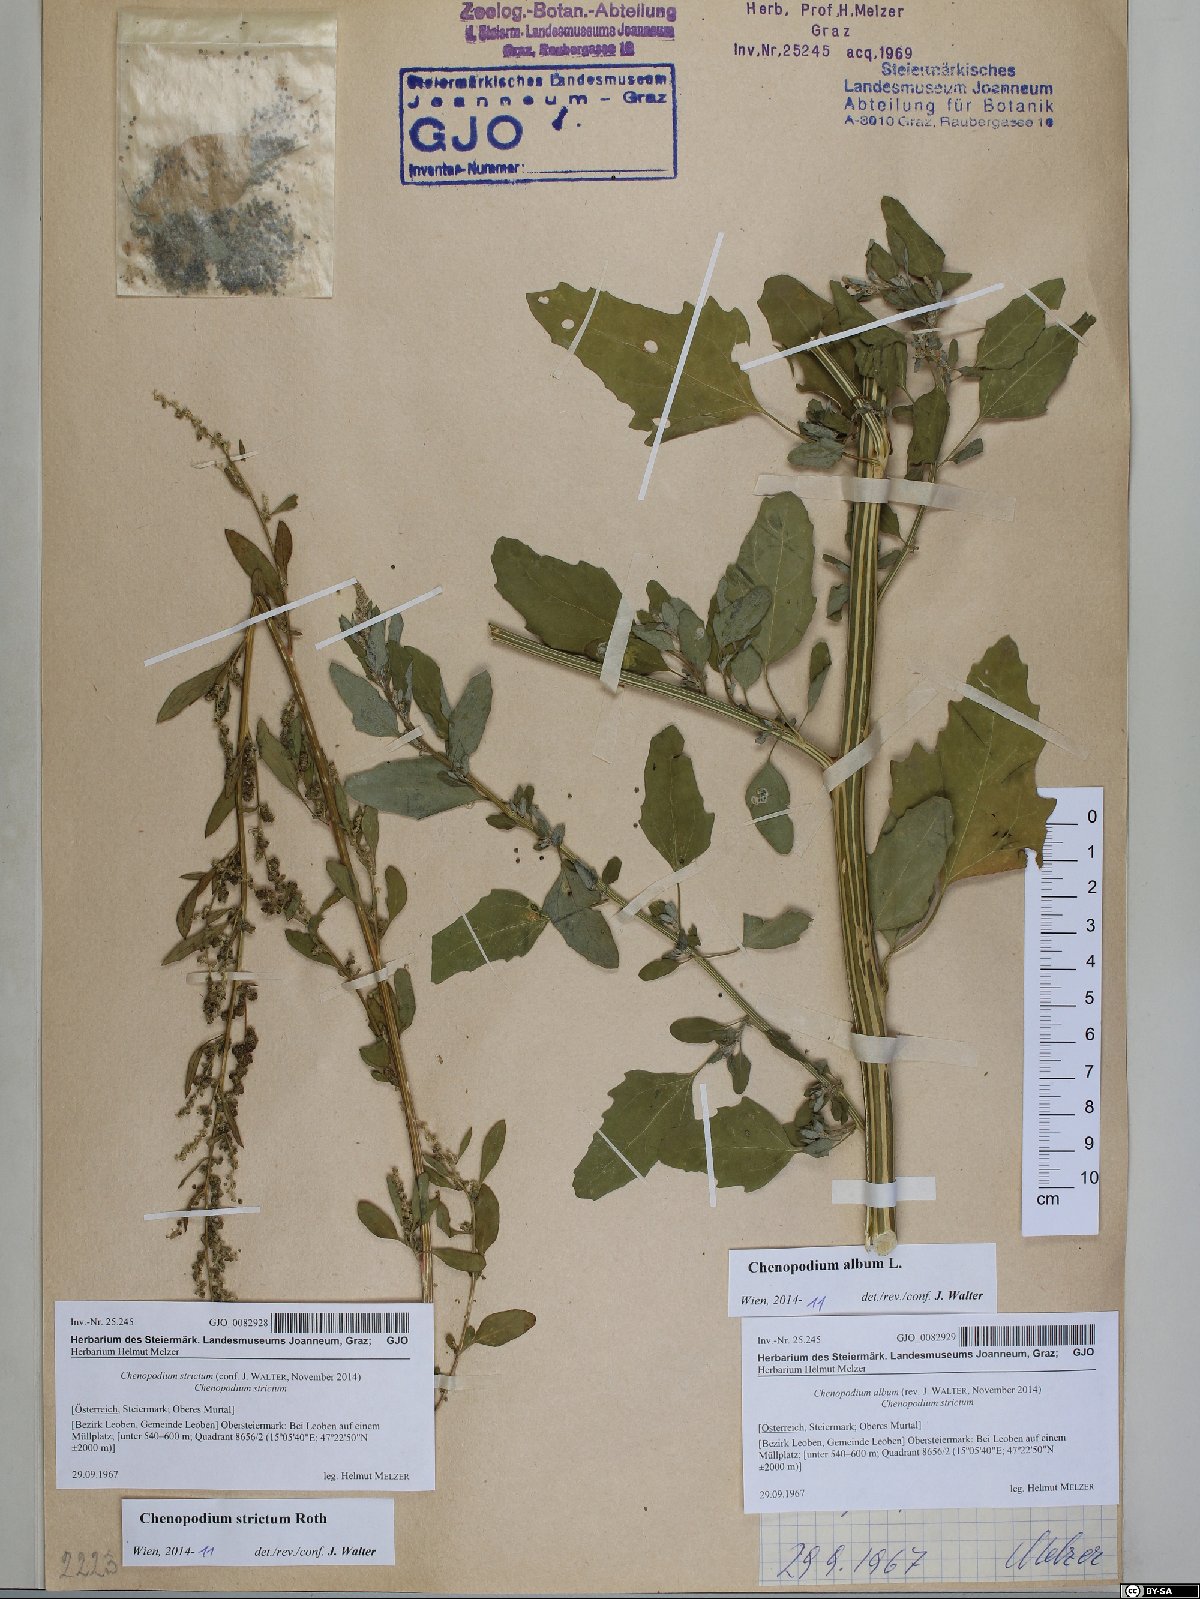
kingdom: Plantae
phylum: Tracheophyta
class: Magnoliopsida
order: Caryophyllales
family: Amaranthaceae
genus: Chenopodium
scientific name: Chenopodium album
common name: Fat-hen
